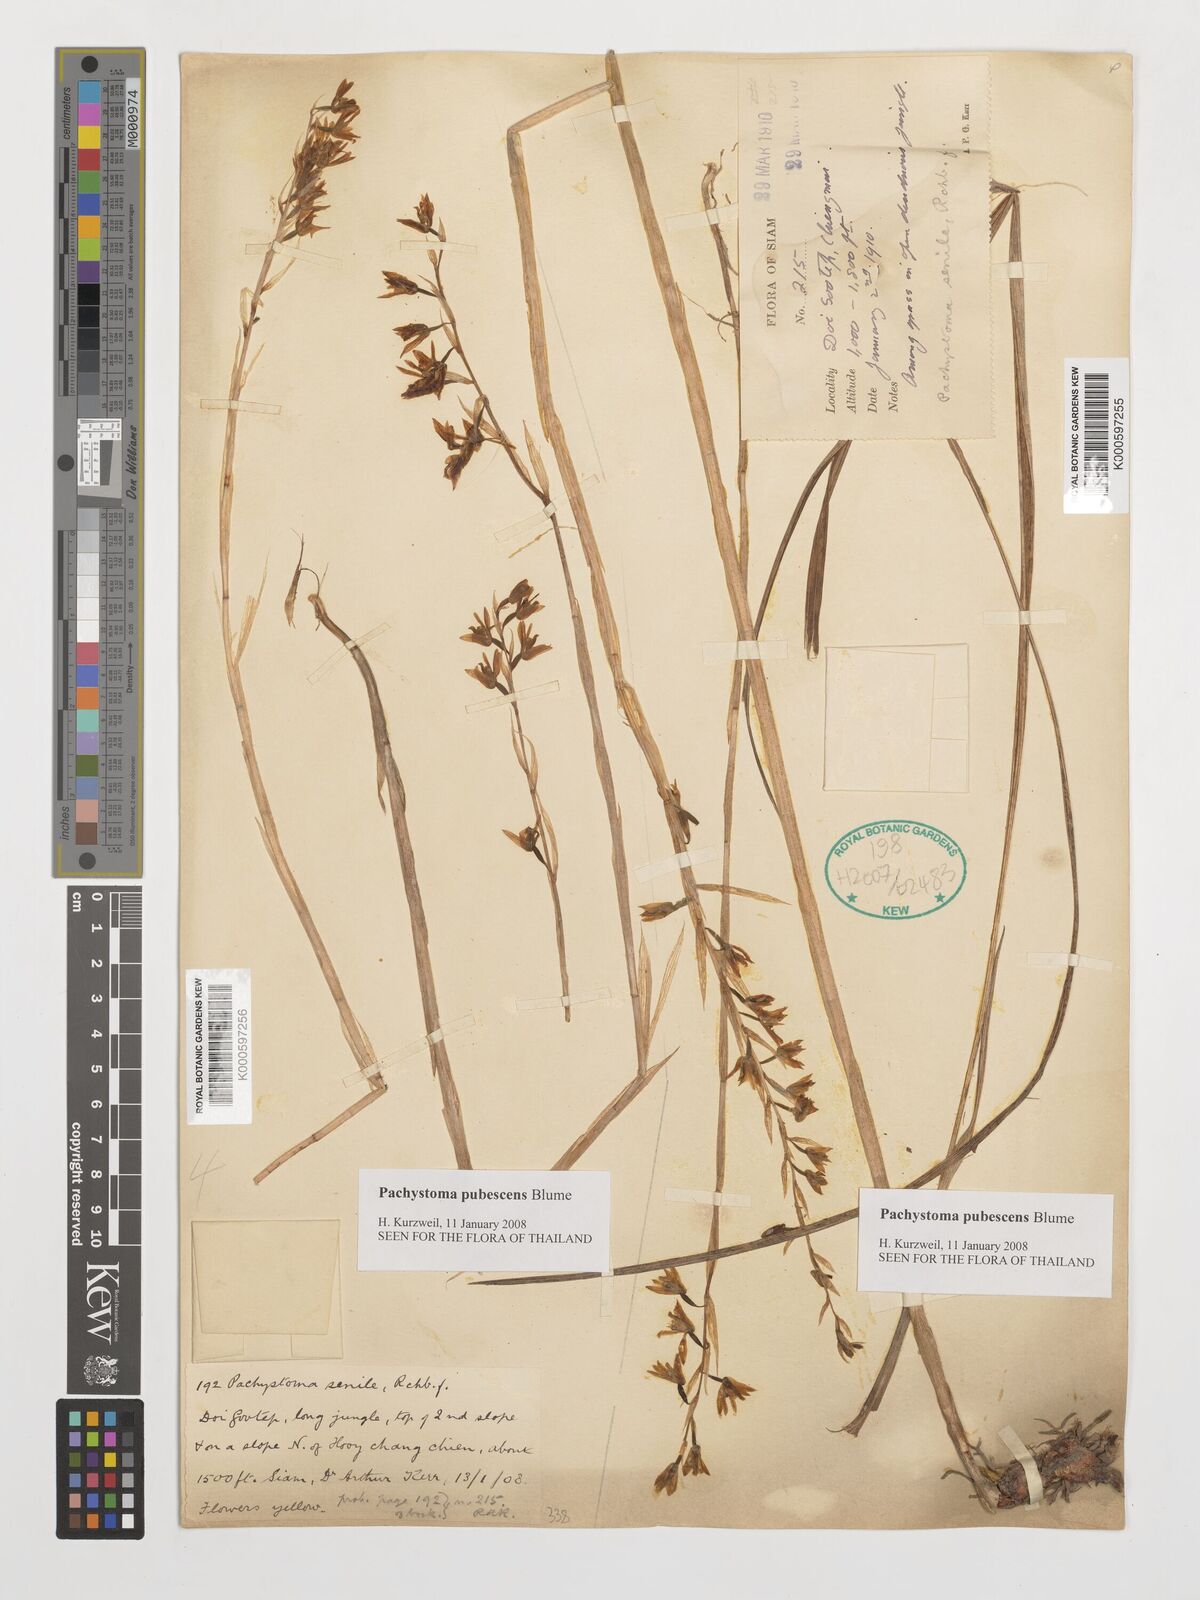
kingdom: Plantae
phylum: Tracheophyta
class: Liliopsida
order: Asparagales
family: Orchidaceae
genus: Pachystoma
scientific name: Pachystoma pubescens
